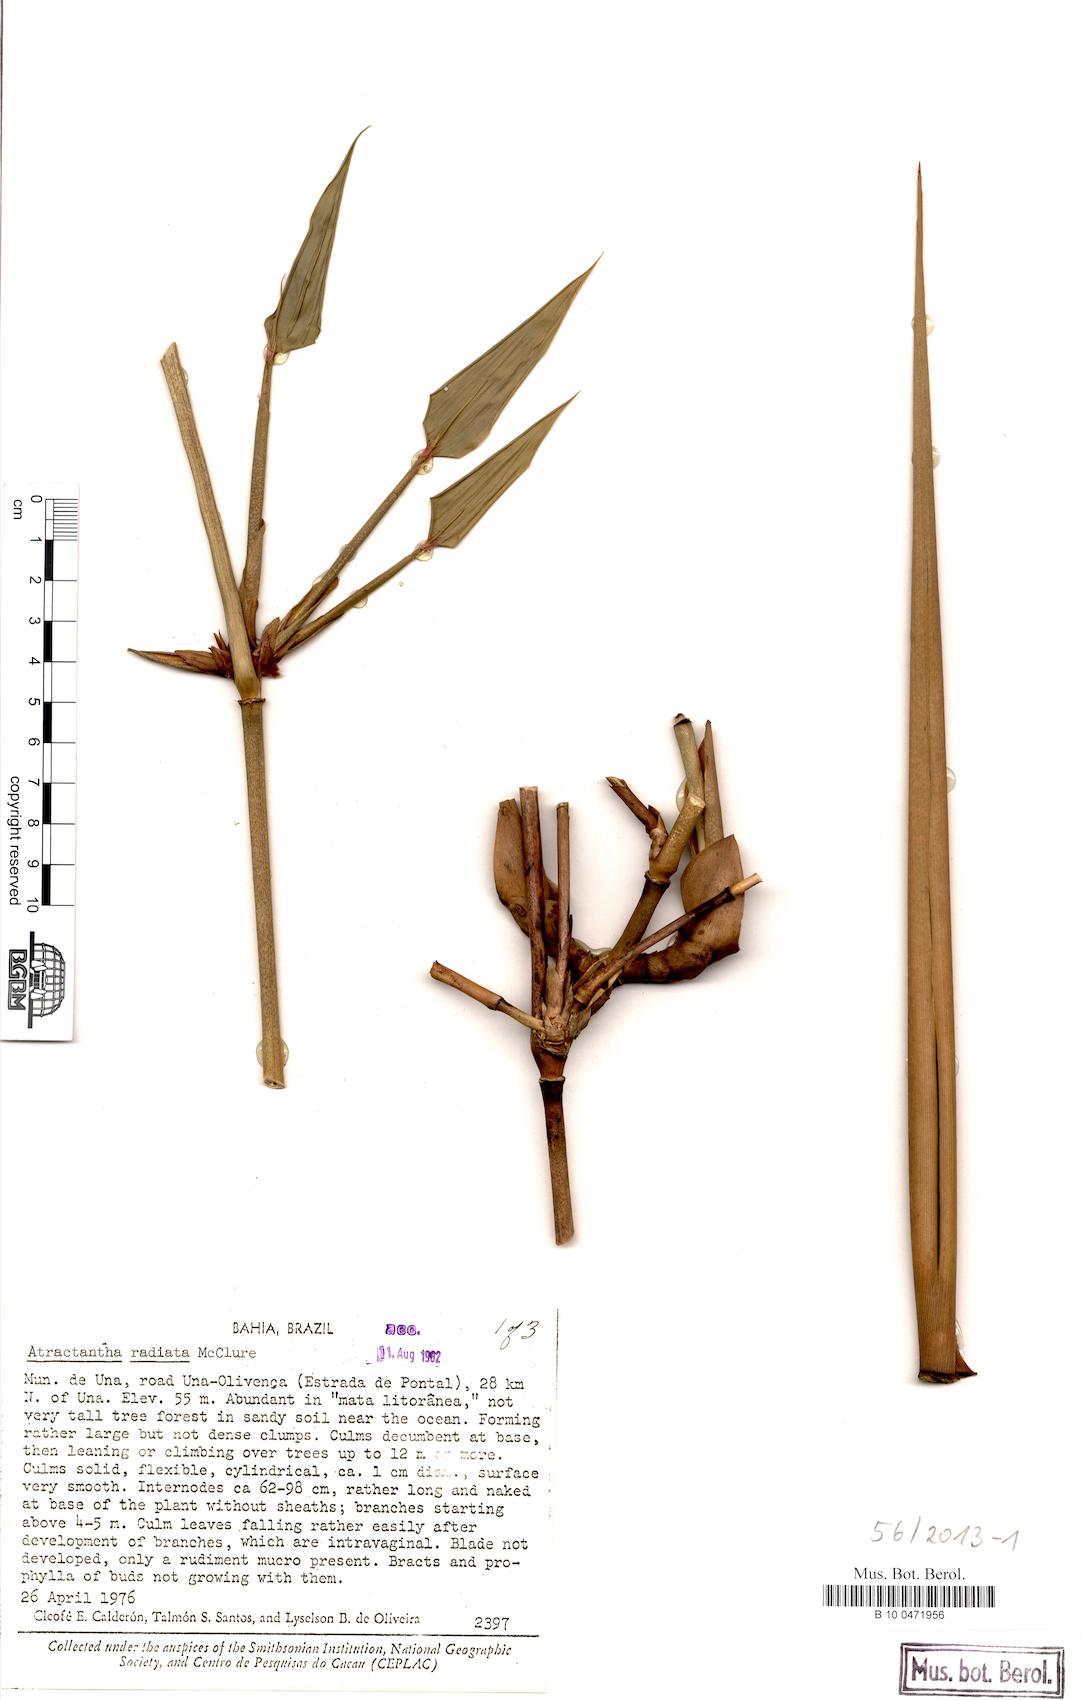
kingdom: Plantae
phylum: Tracheophyta
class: Liliopsida
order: Poales
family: Poaceae
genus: Atractantha
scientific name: Atractantha radiata
